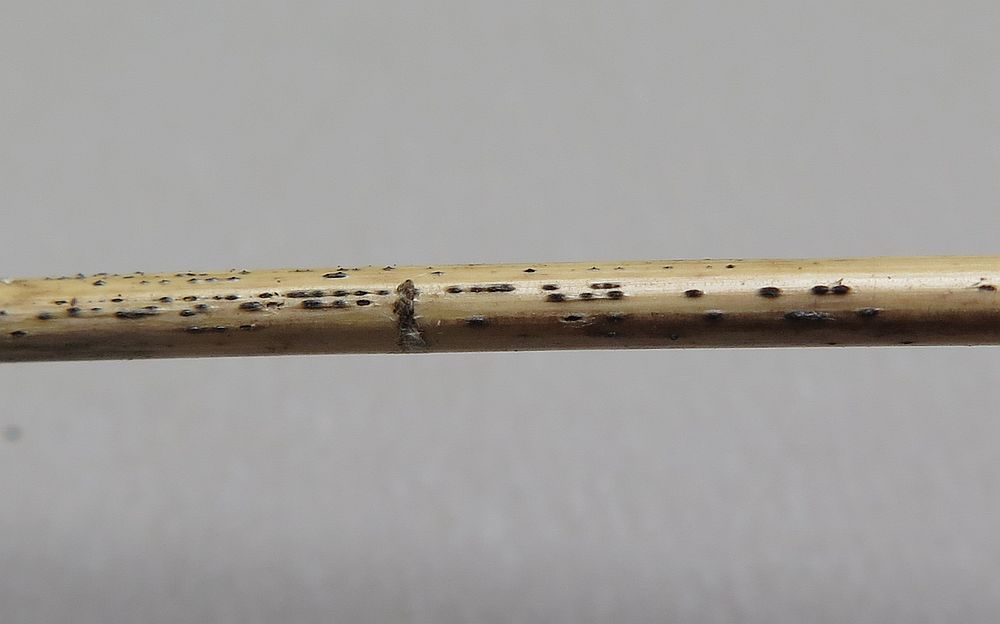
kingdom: Fungi
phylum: Ascomycota
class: Dothideomycetes
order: Pleosporales
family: Lentitheciaceae
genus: Keissleriella
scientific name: Keissleriella culmifida
